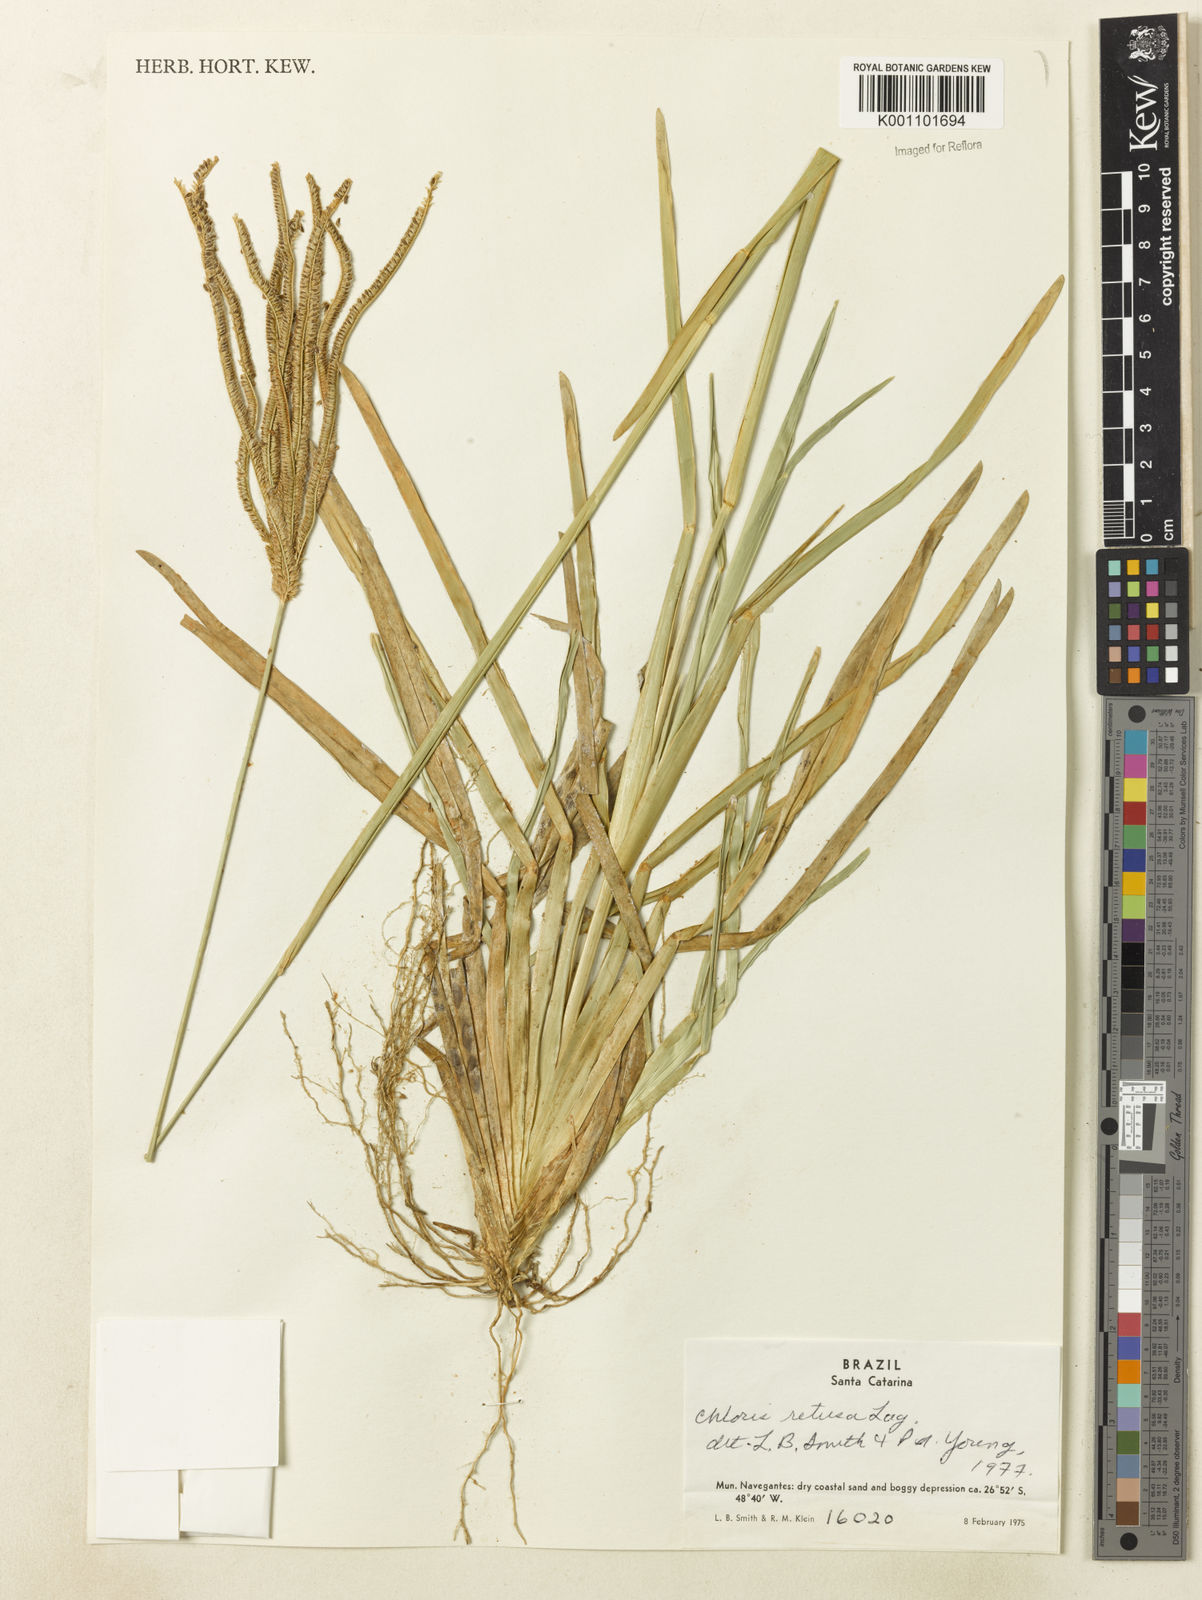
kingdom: Plantae
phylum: Tracheophyta
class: Liliopsida
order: Poales
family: Poaceae
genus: Eustachys
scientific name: Eustachys retusa
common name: Argentine fingergrass
